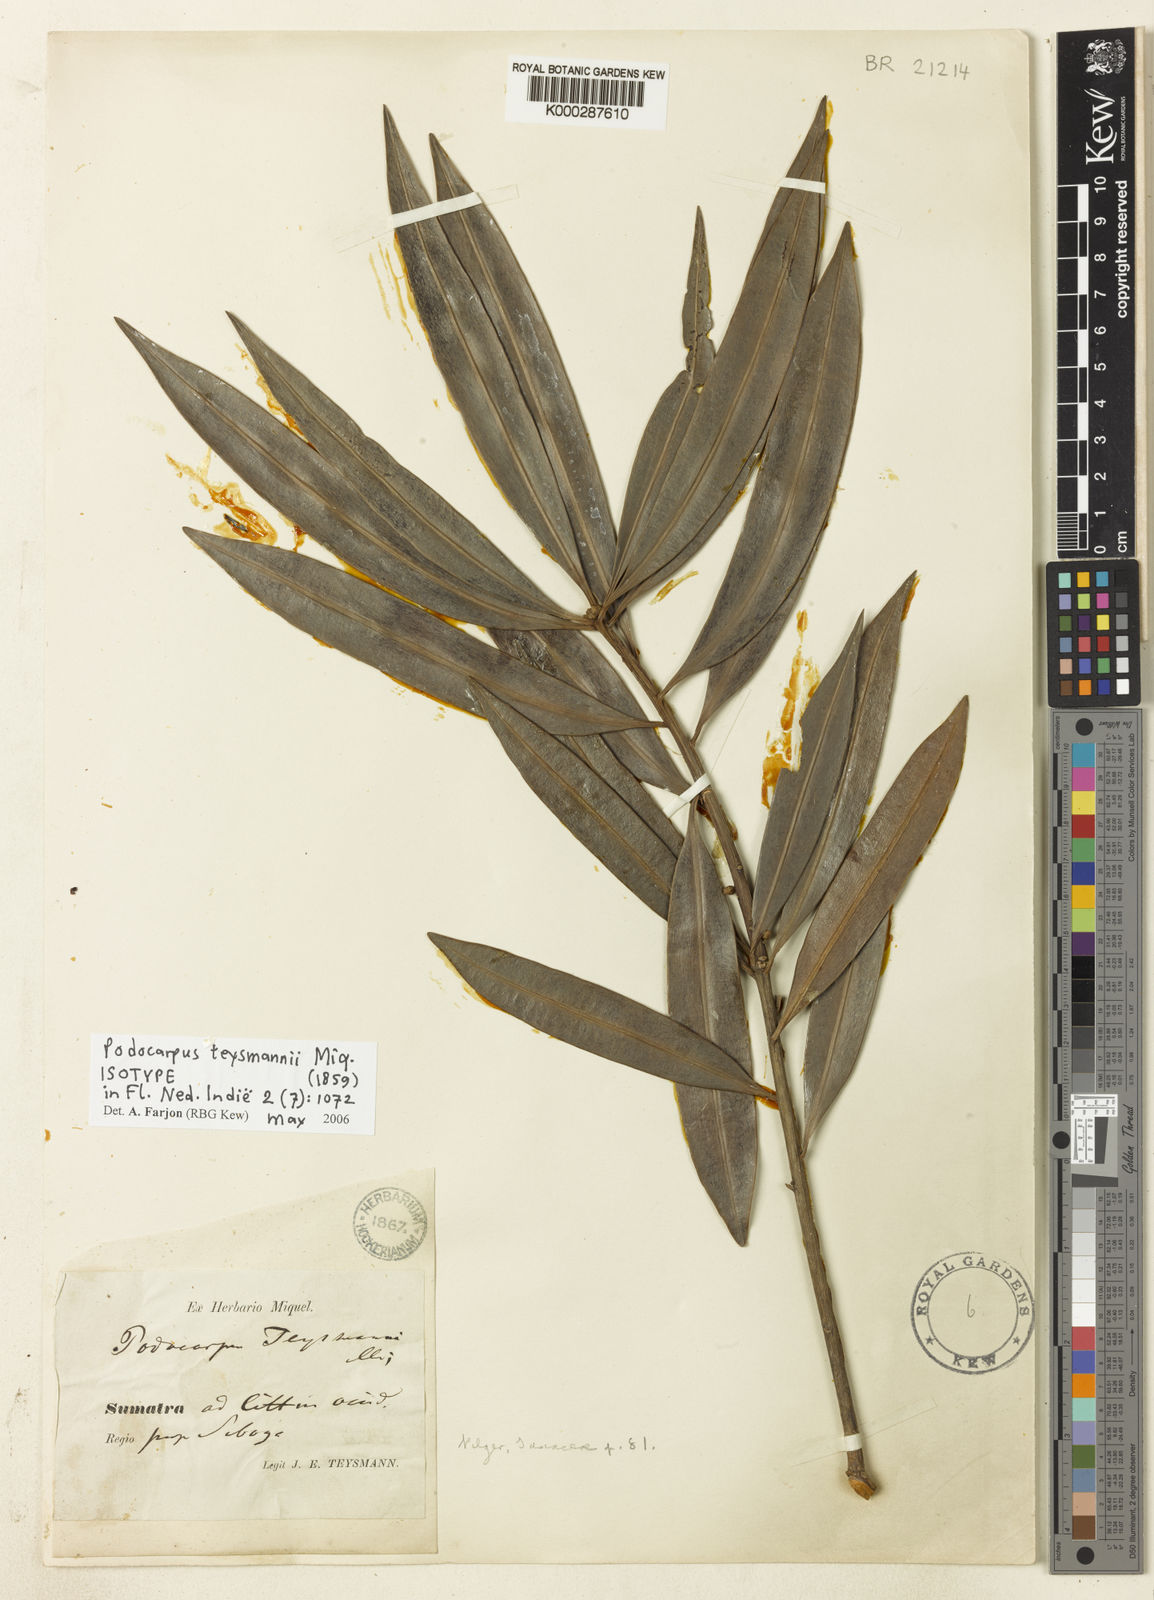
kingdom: Plantae
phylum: Tracheophyta
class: Pinopsida
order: Pinales
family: Podocarpaceae
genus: Podocarpus
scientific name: Podocarpus teysmannii
